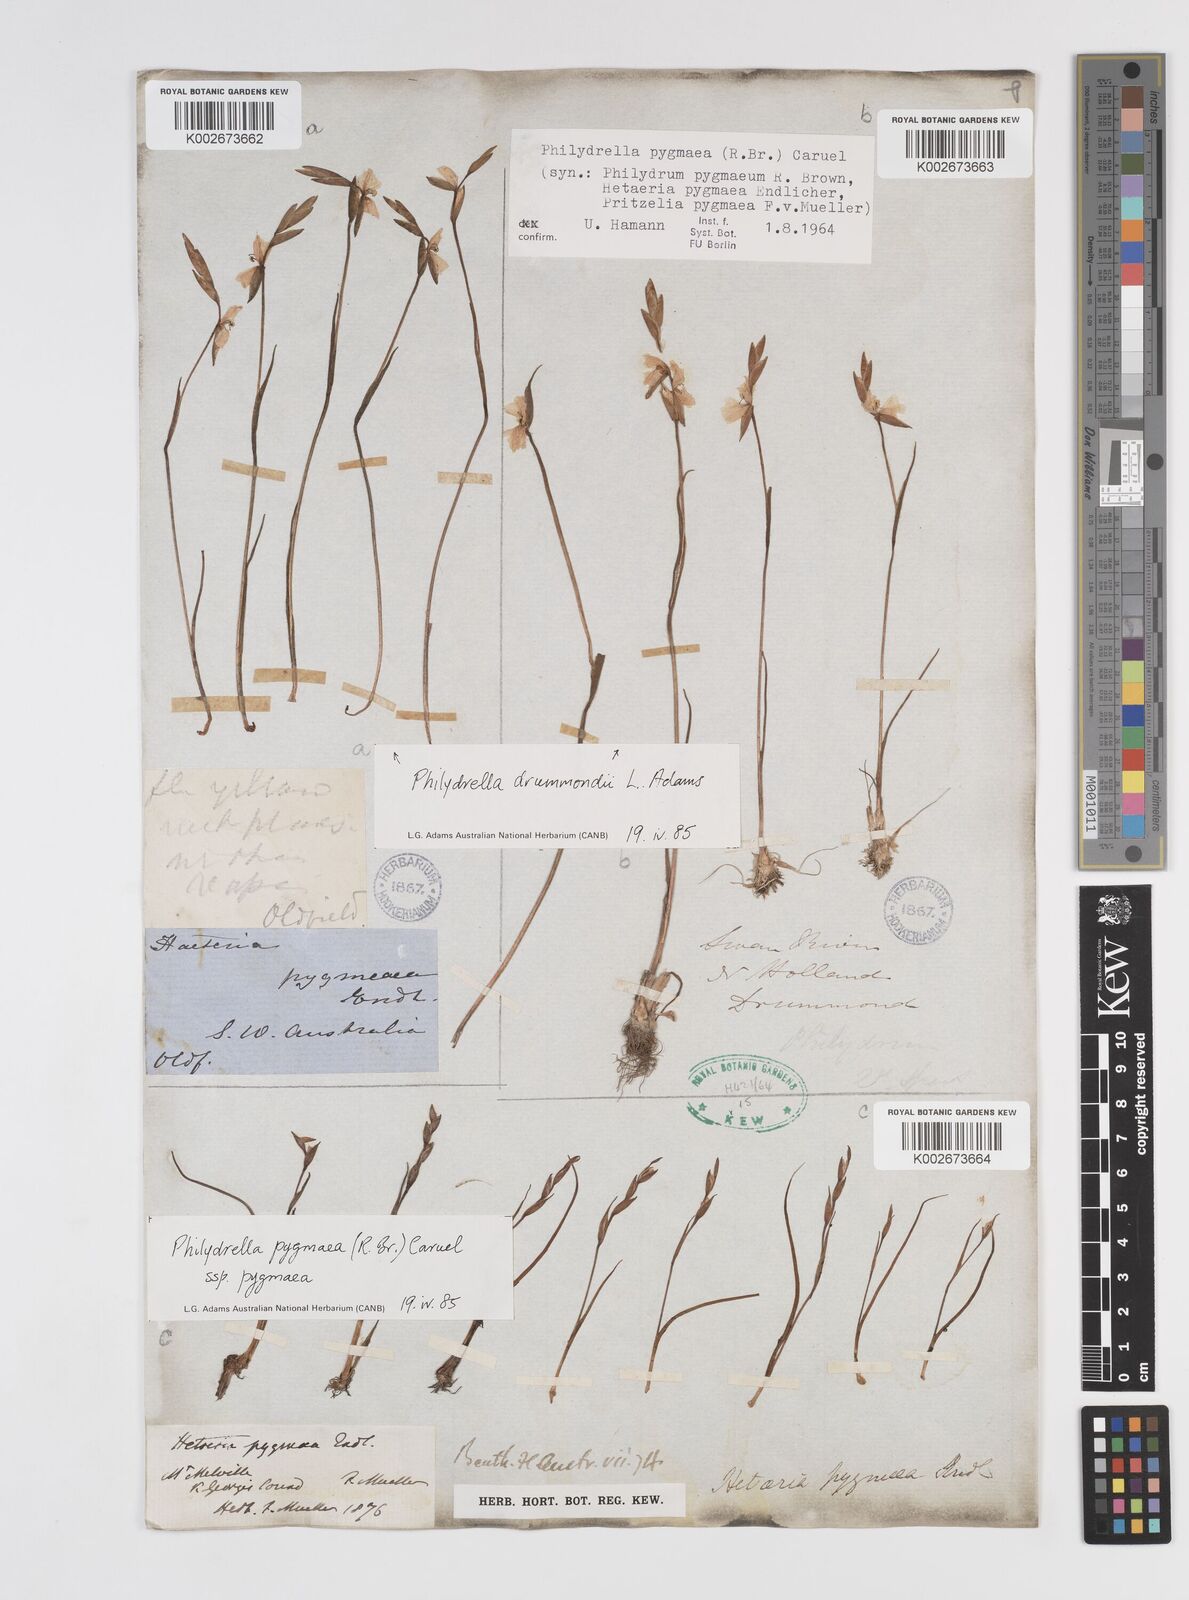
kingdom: Plantae
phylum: Tracheophyta
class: Liliopsida
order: Commelinales
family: Philydraceae
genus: Philydrella
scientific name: Philydrella pygmaea
